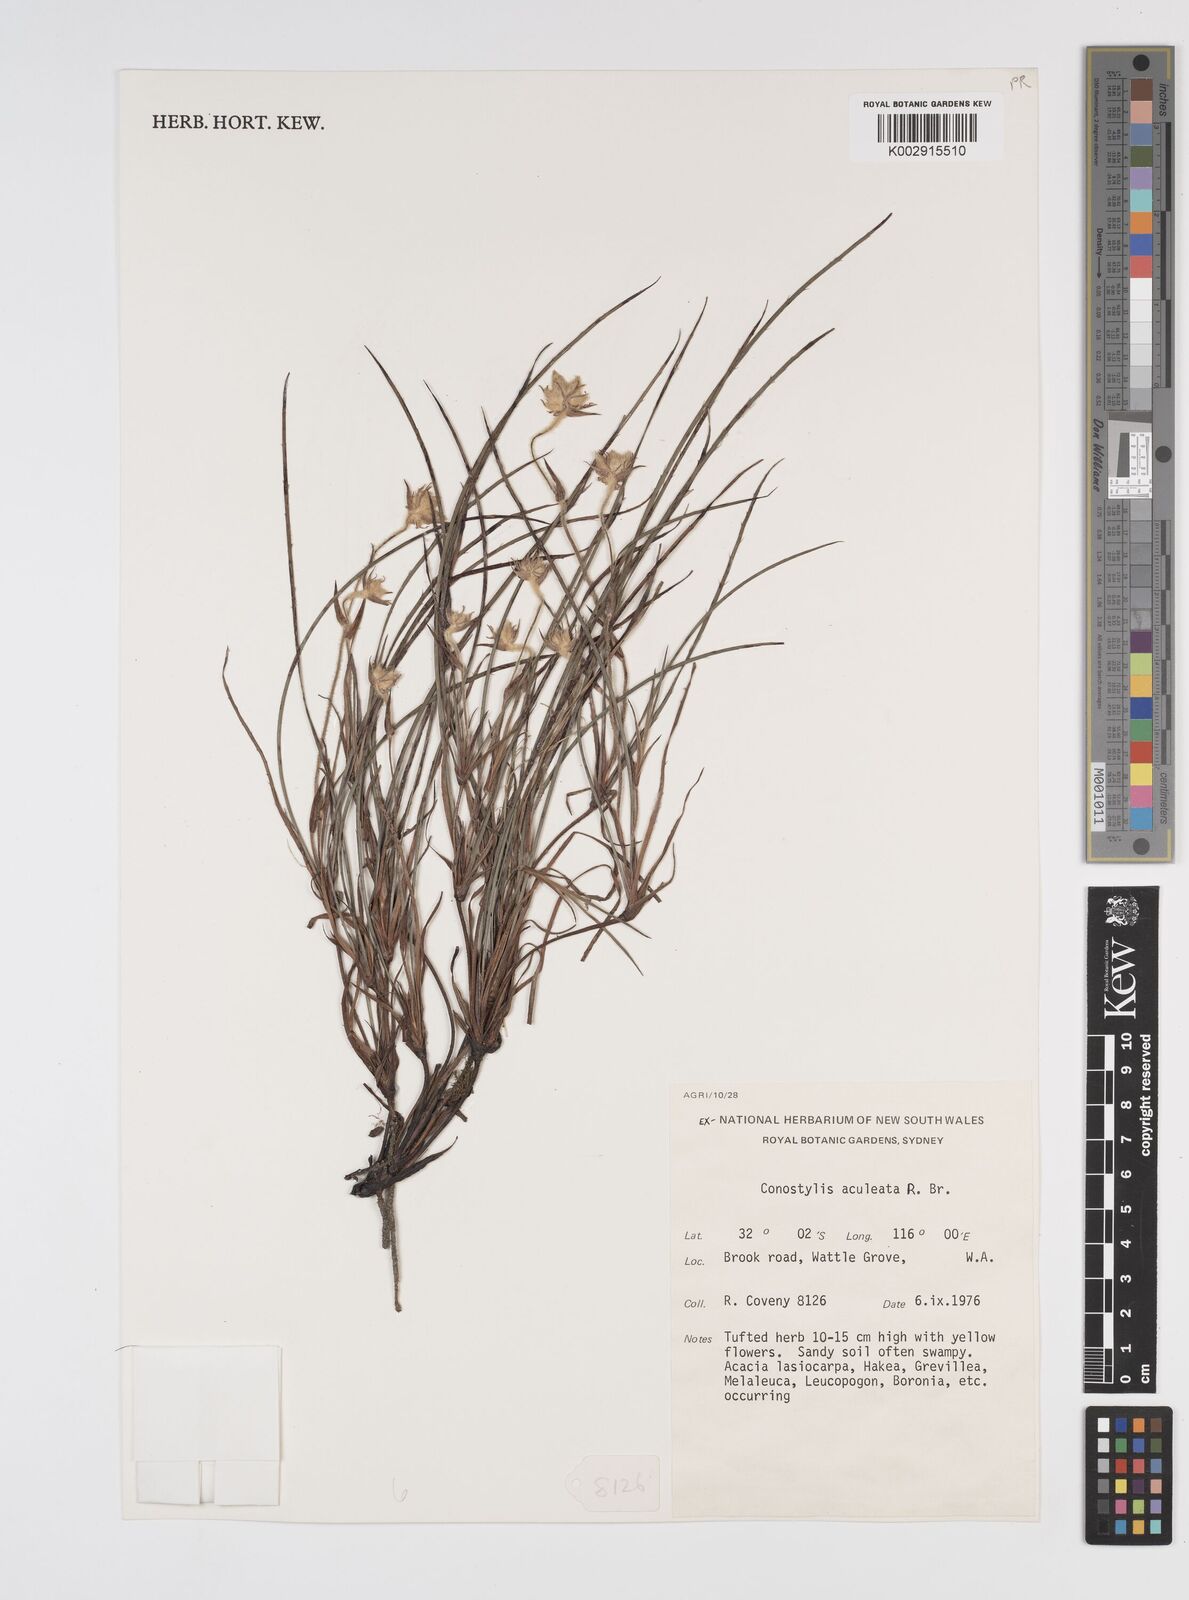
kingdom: Plantae
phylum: Tracheophyta
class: Liliopsida
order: Commelinales
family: Haemodoraceae
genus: Conostylis
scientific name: Conostylis aculeata
